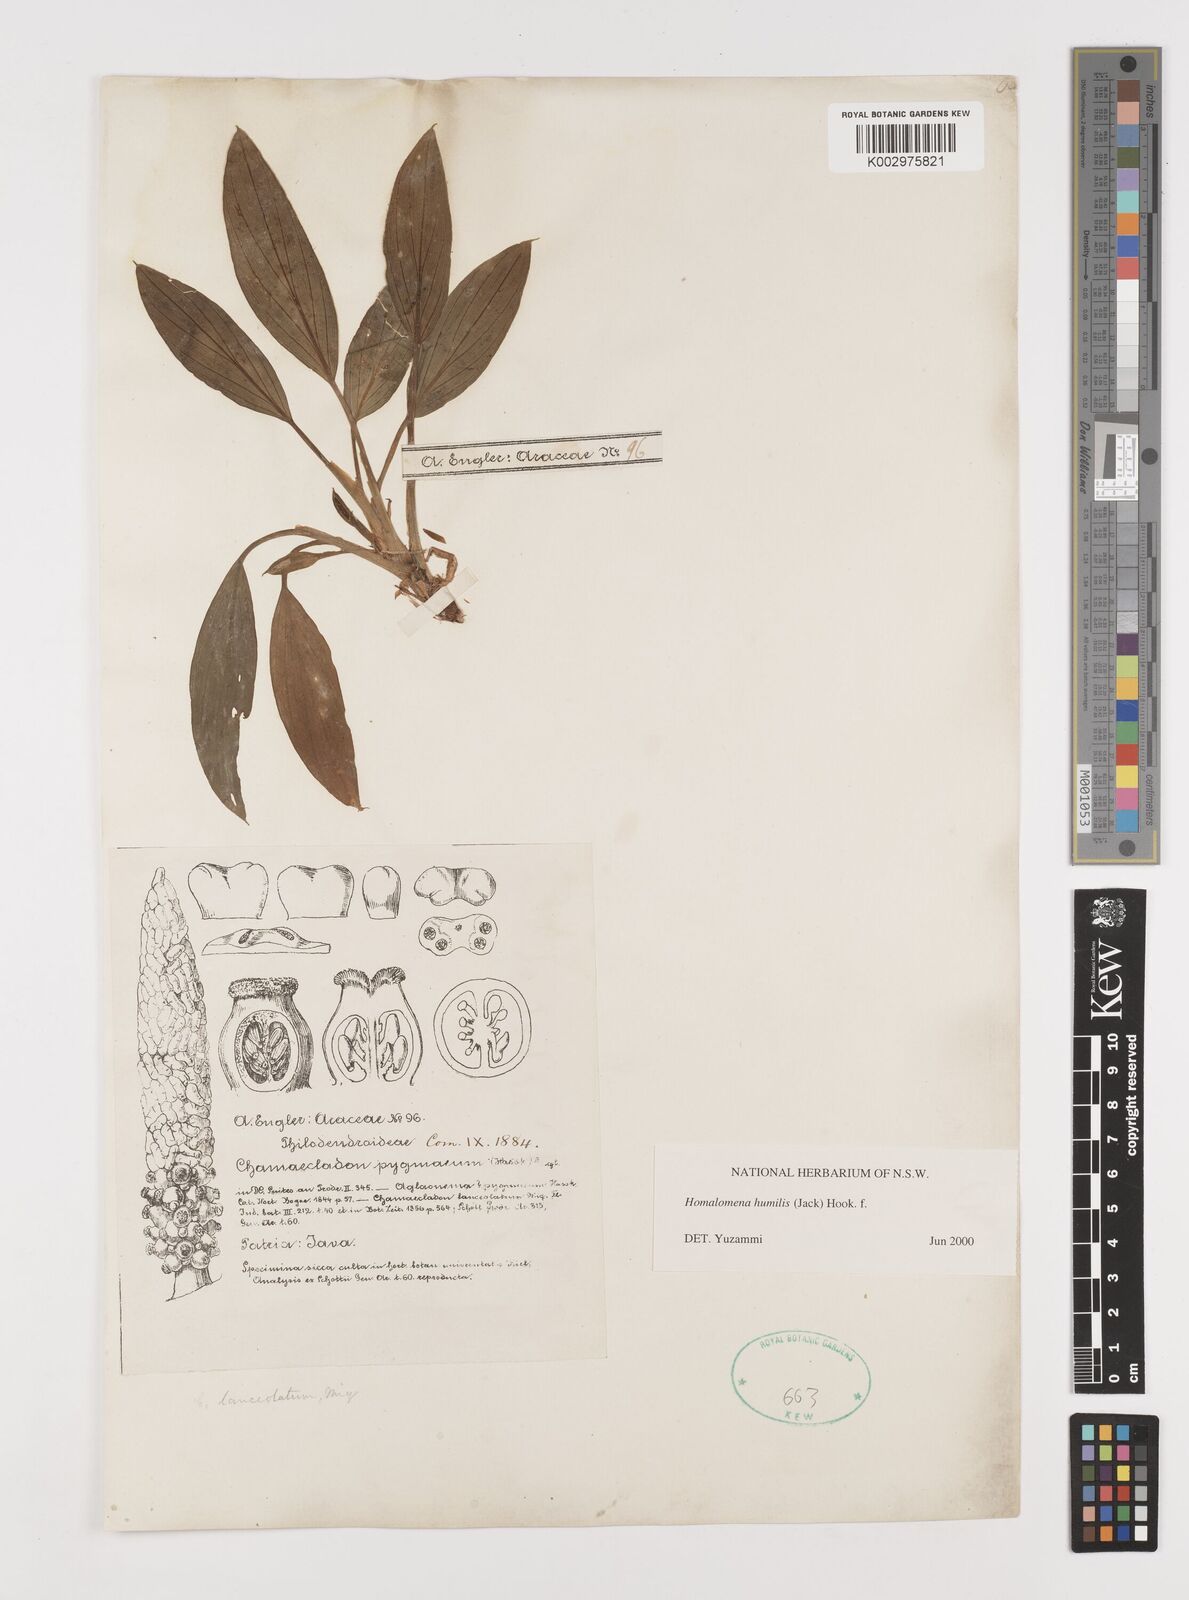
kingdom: Plantae
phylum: Tracheophyta
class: Liliopsida
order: Alismatales
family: Araceae
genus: Homalomena
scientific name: Homalomena humilis
